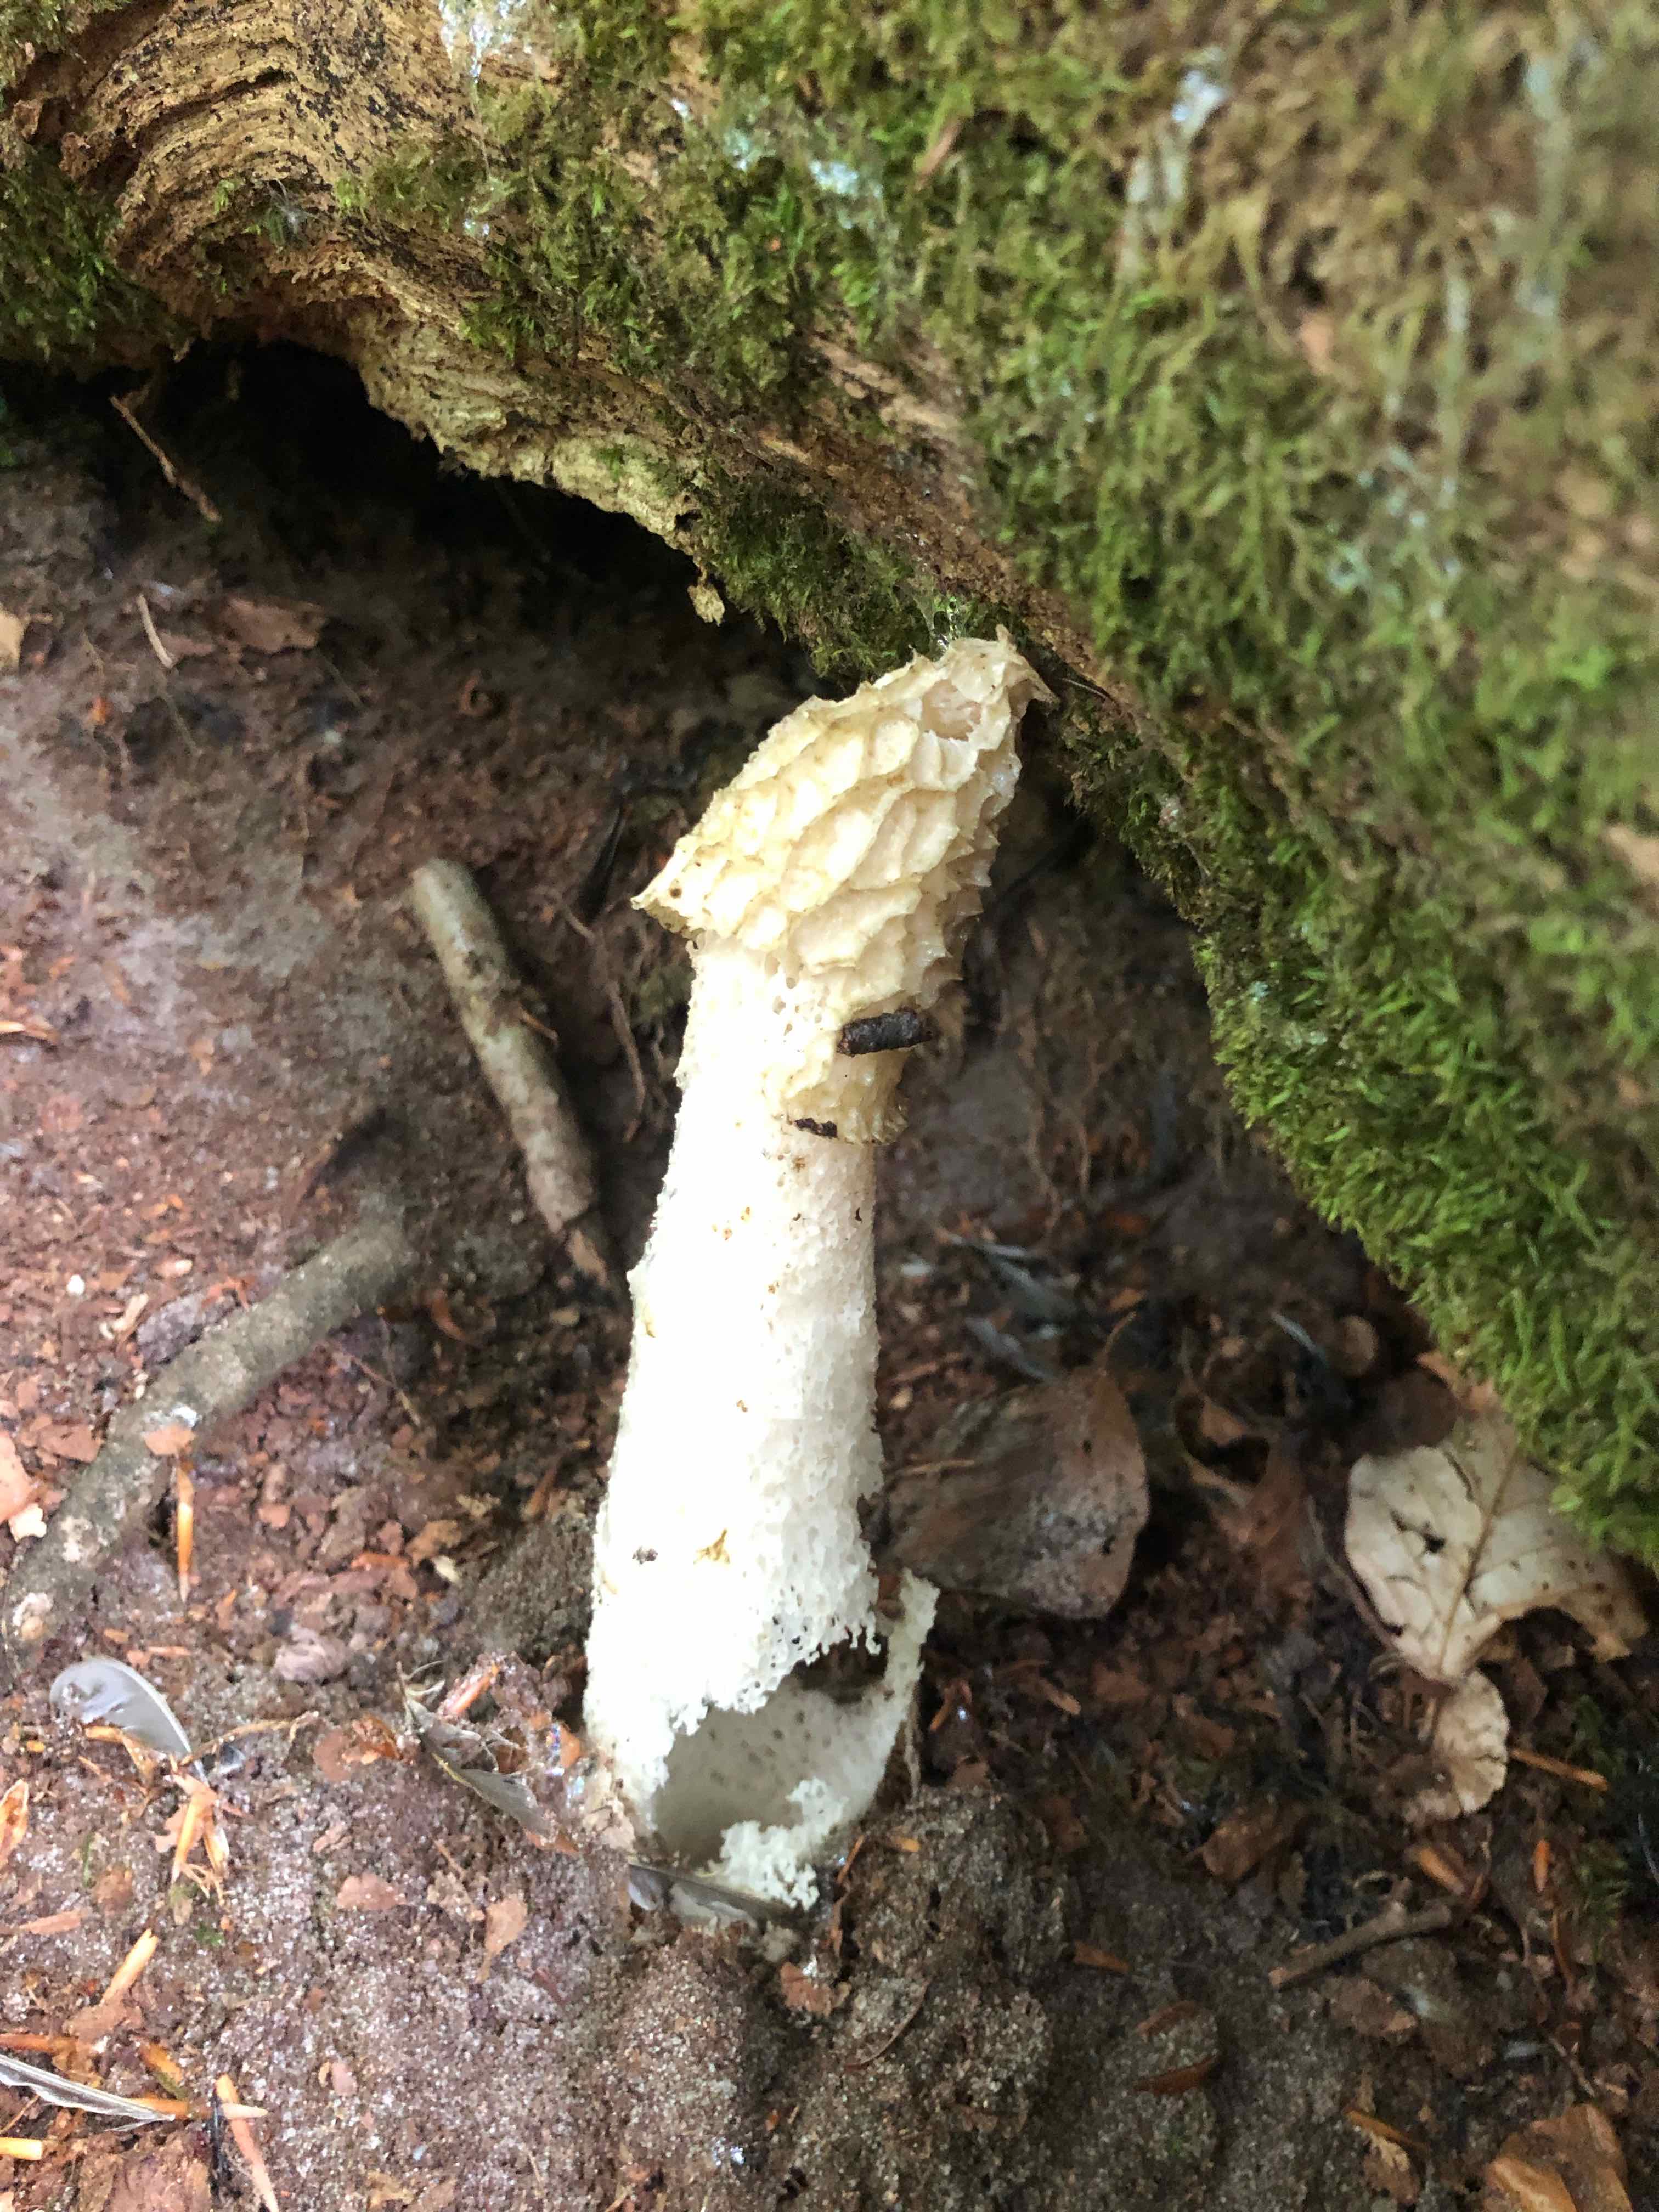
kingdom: Fungi
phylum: Basidiomycota
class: Agaricomycetes
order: Phallales
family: Phallaceae
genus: Phallus
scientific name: Phallus impudicus
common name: almindelig stinksvamp
